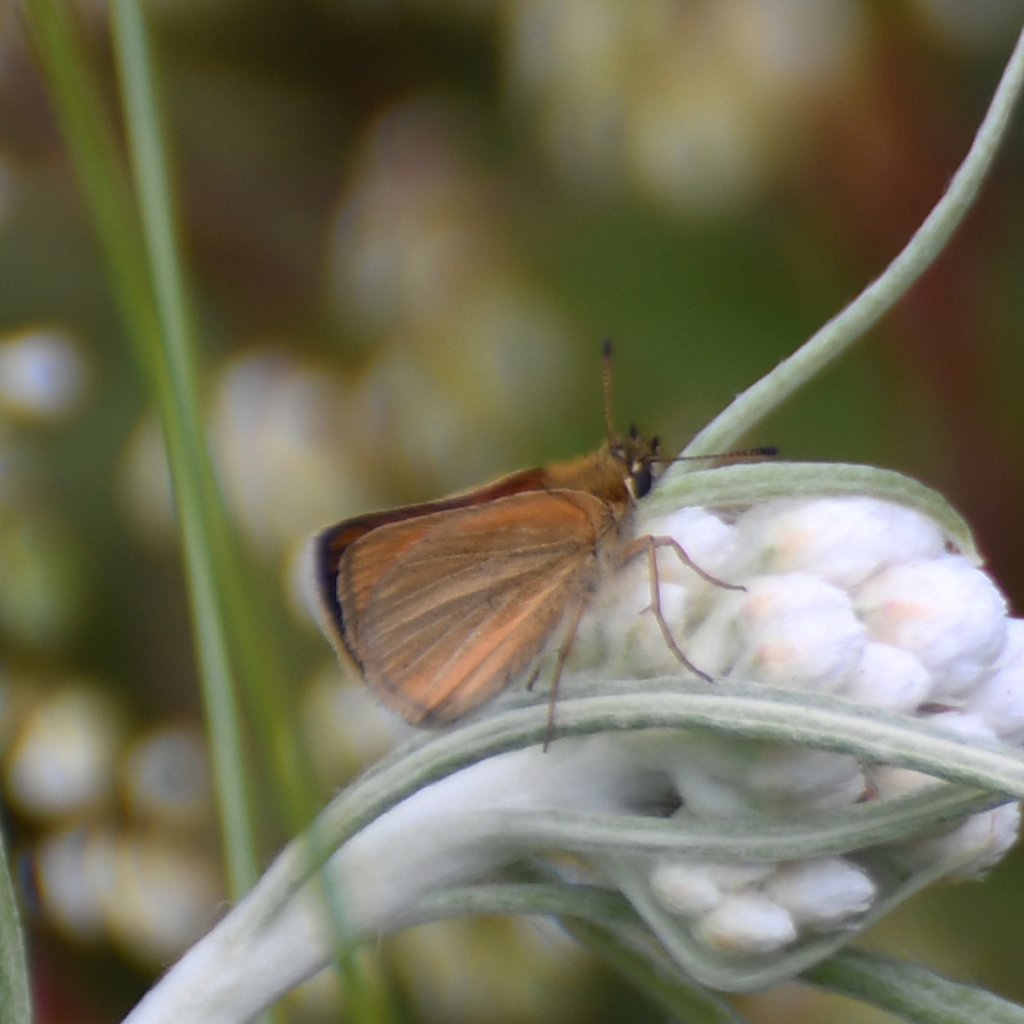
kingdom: Animalia
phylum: Arthropoda
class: Insecta
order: Lepidoptera
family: Hesperiidae
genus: Thymelicus
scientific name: Thymelicus lineola
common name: European Skipper
